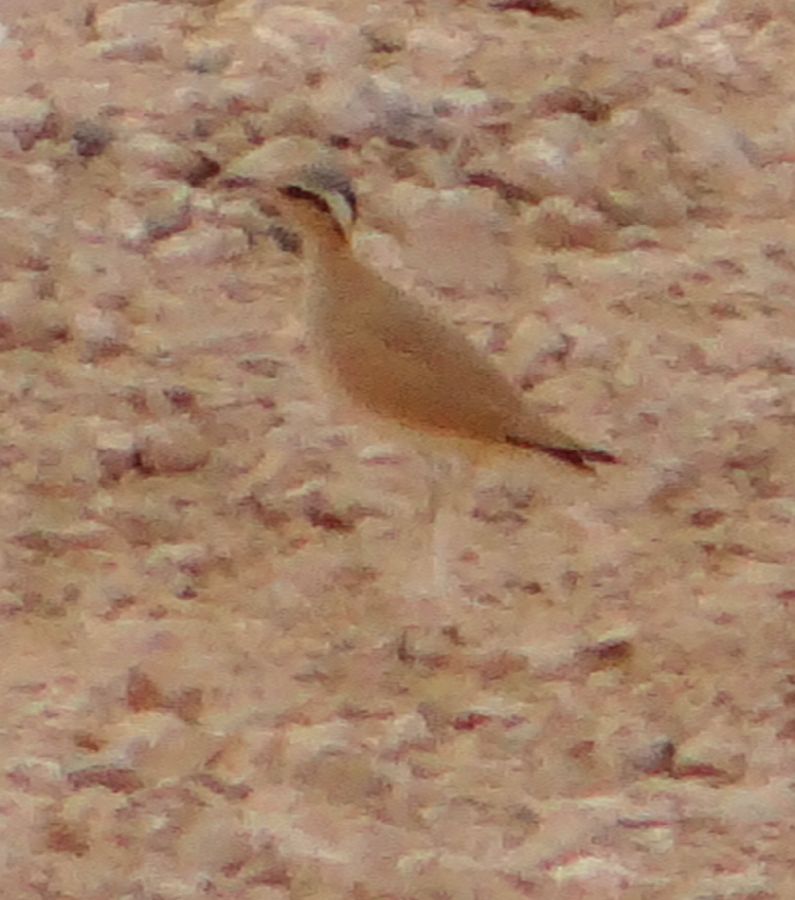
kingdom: Animalia
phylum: Chordata
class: Aves
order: Charadriiformes
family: Glareolidae
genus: Cursorius
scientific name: Cursorius cursor
